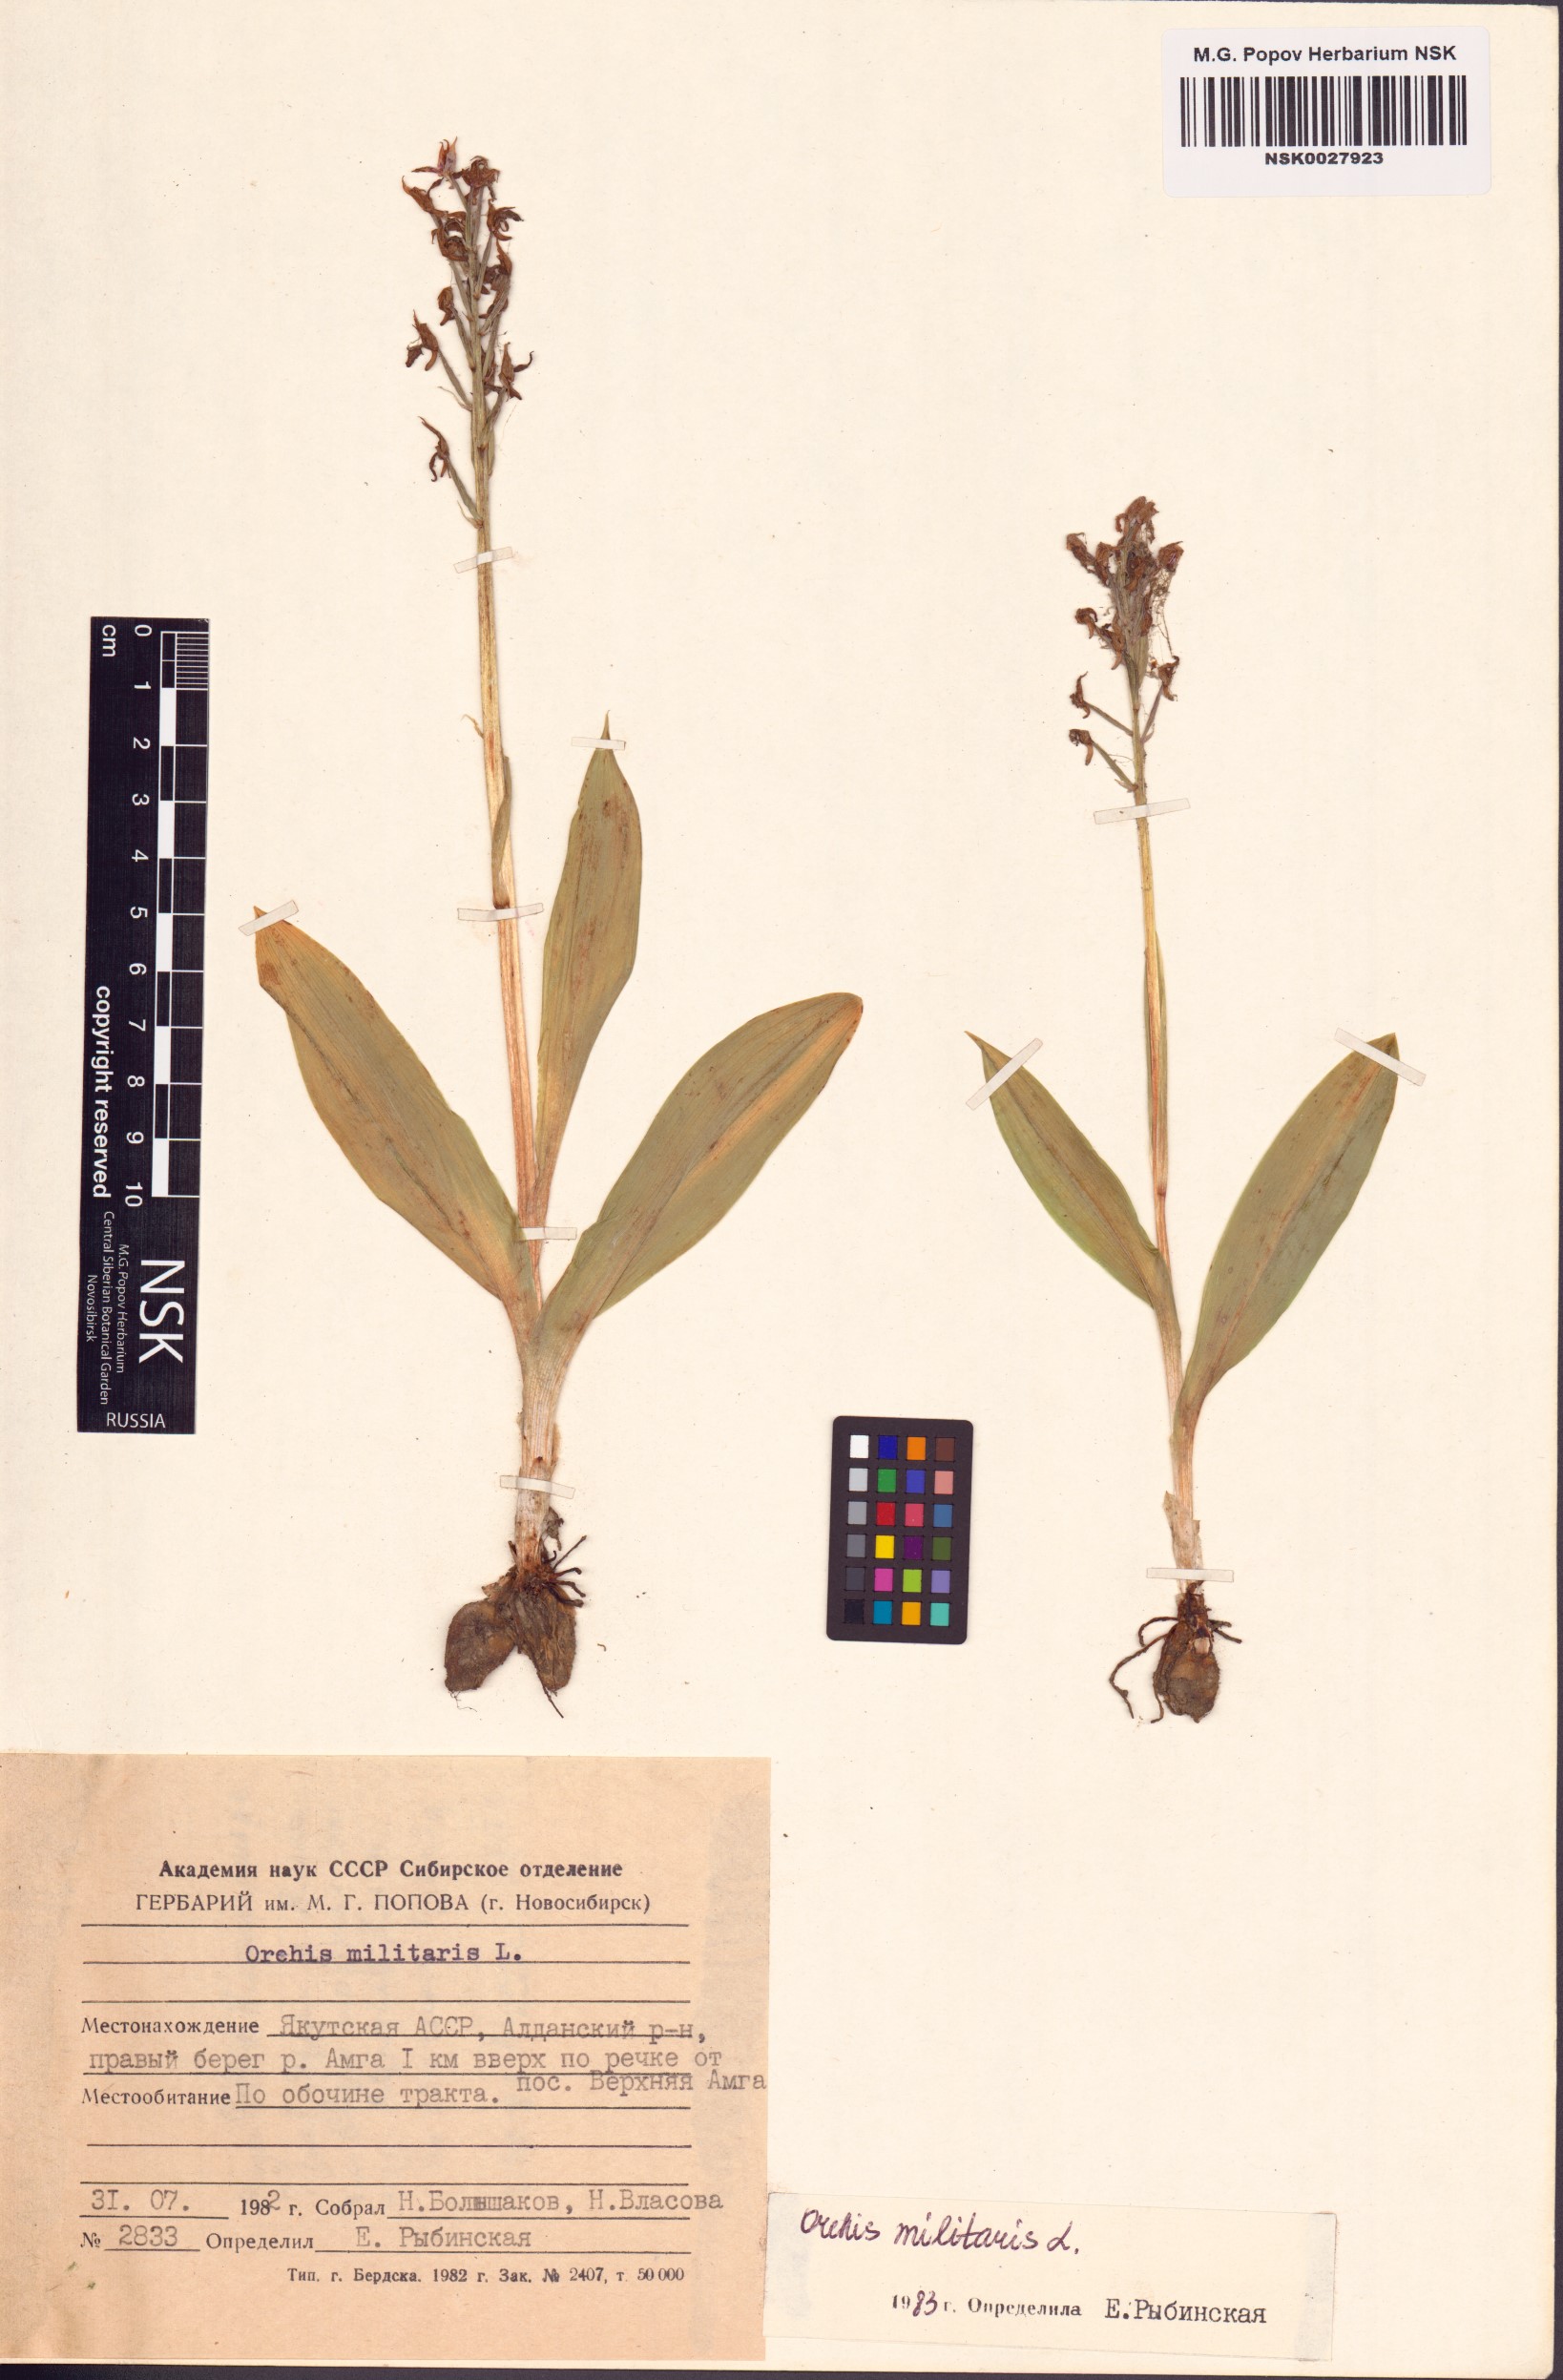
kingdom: Plantae
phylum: Tracheophyta
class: Liliopsida
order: Asparagales
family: Orchidaceae
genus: Orchis
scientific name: Orchis militaris
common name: Military orchid
